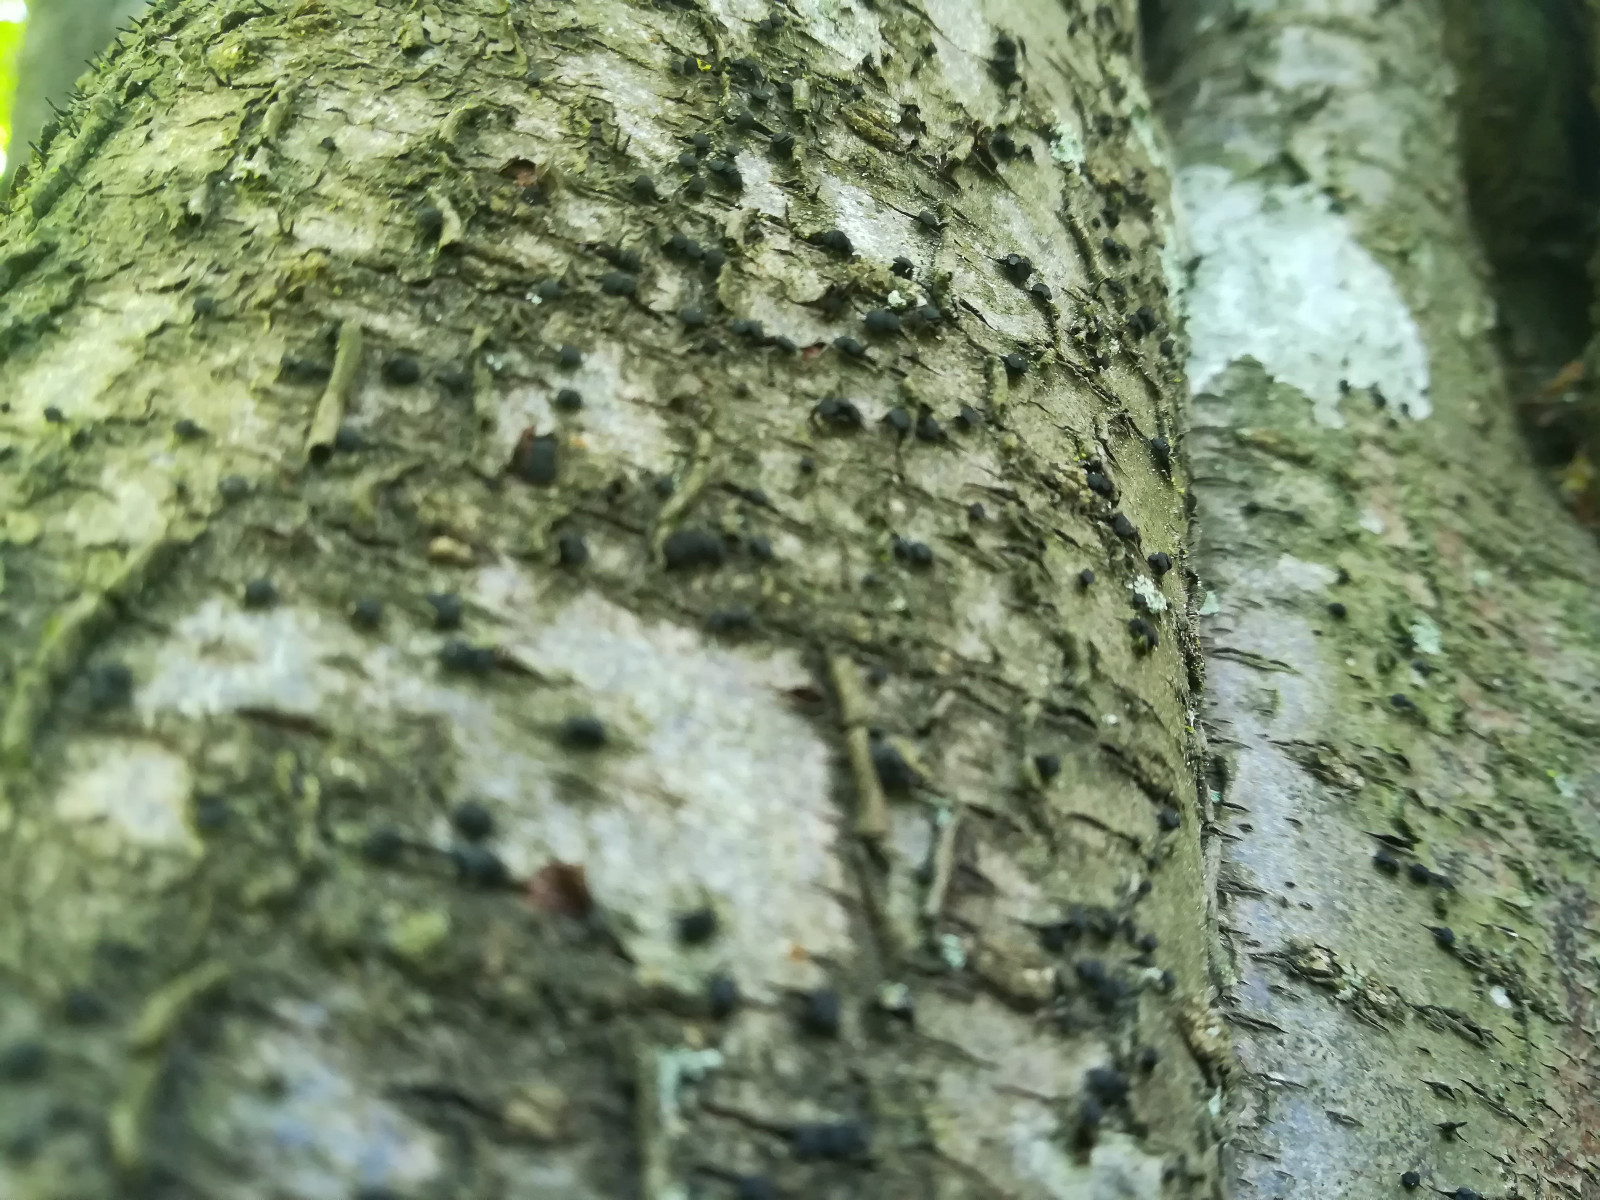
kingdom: Fungi
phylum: Ascomycota
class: Leotiomycetes
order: Helotiales
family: Dermateaceae
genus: Dermea
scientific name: Dermea cerasi
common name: kirsebær-klyngeskive
